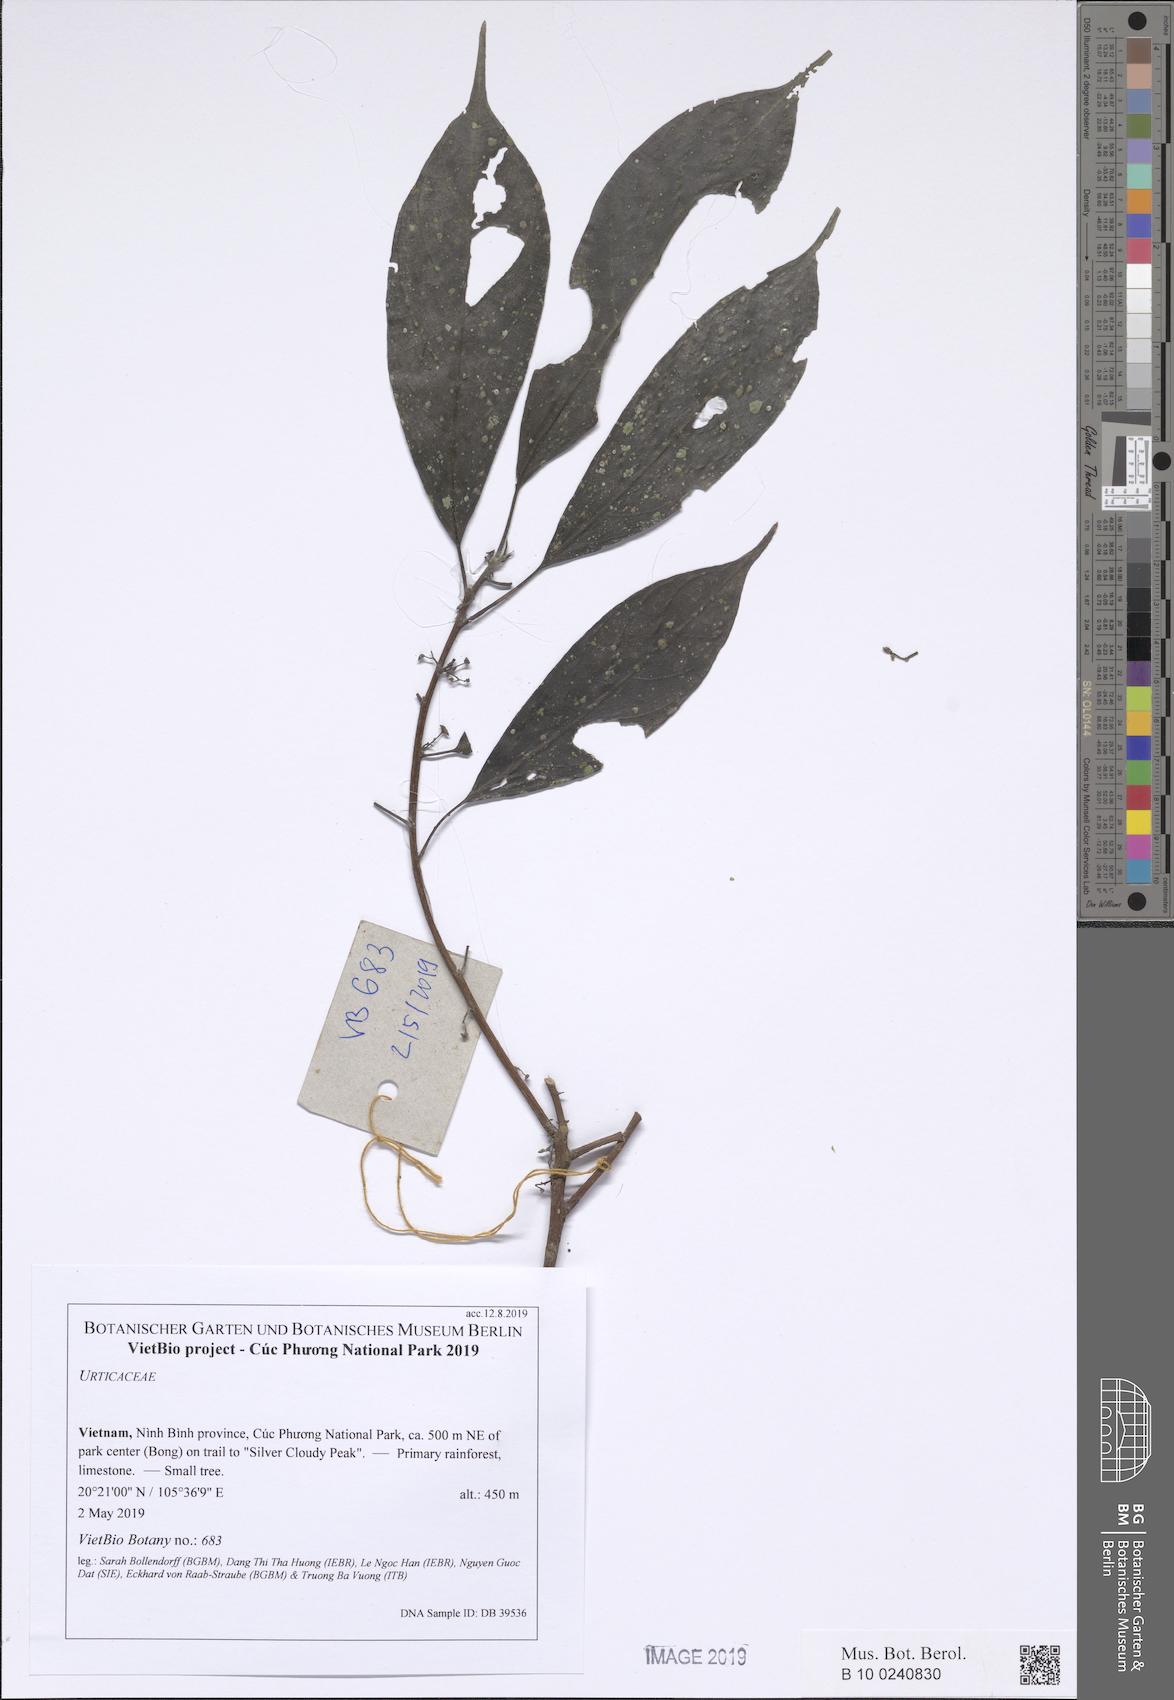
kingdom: Plantae
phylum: Tracheophyta
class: Magnoliopsida
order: Rosales
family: Urticaceae
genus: Villebrunea
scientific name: Villebrunea
